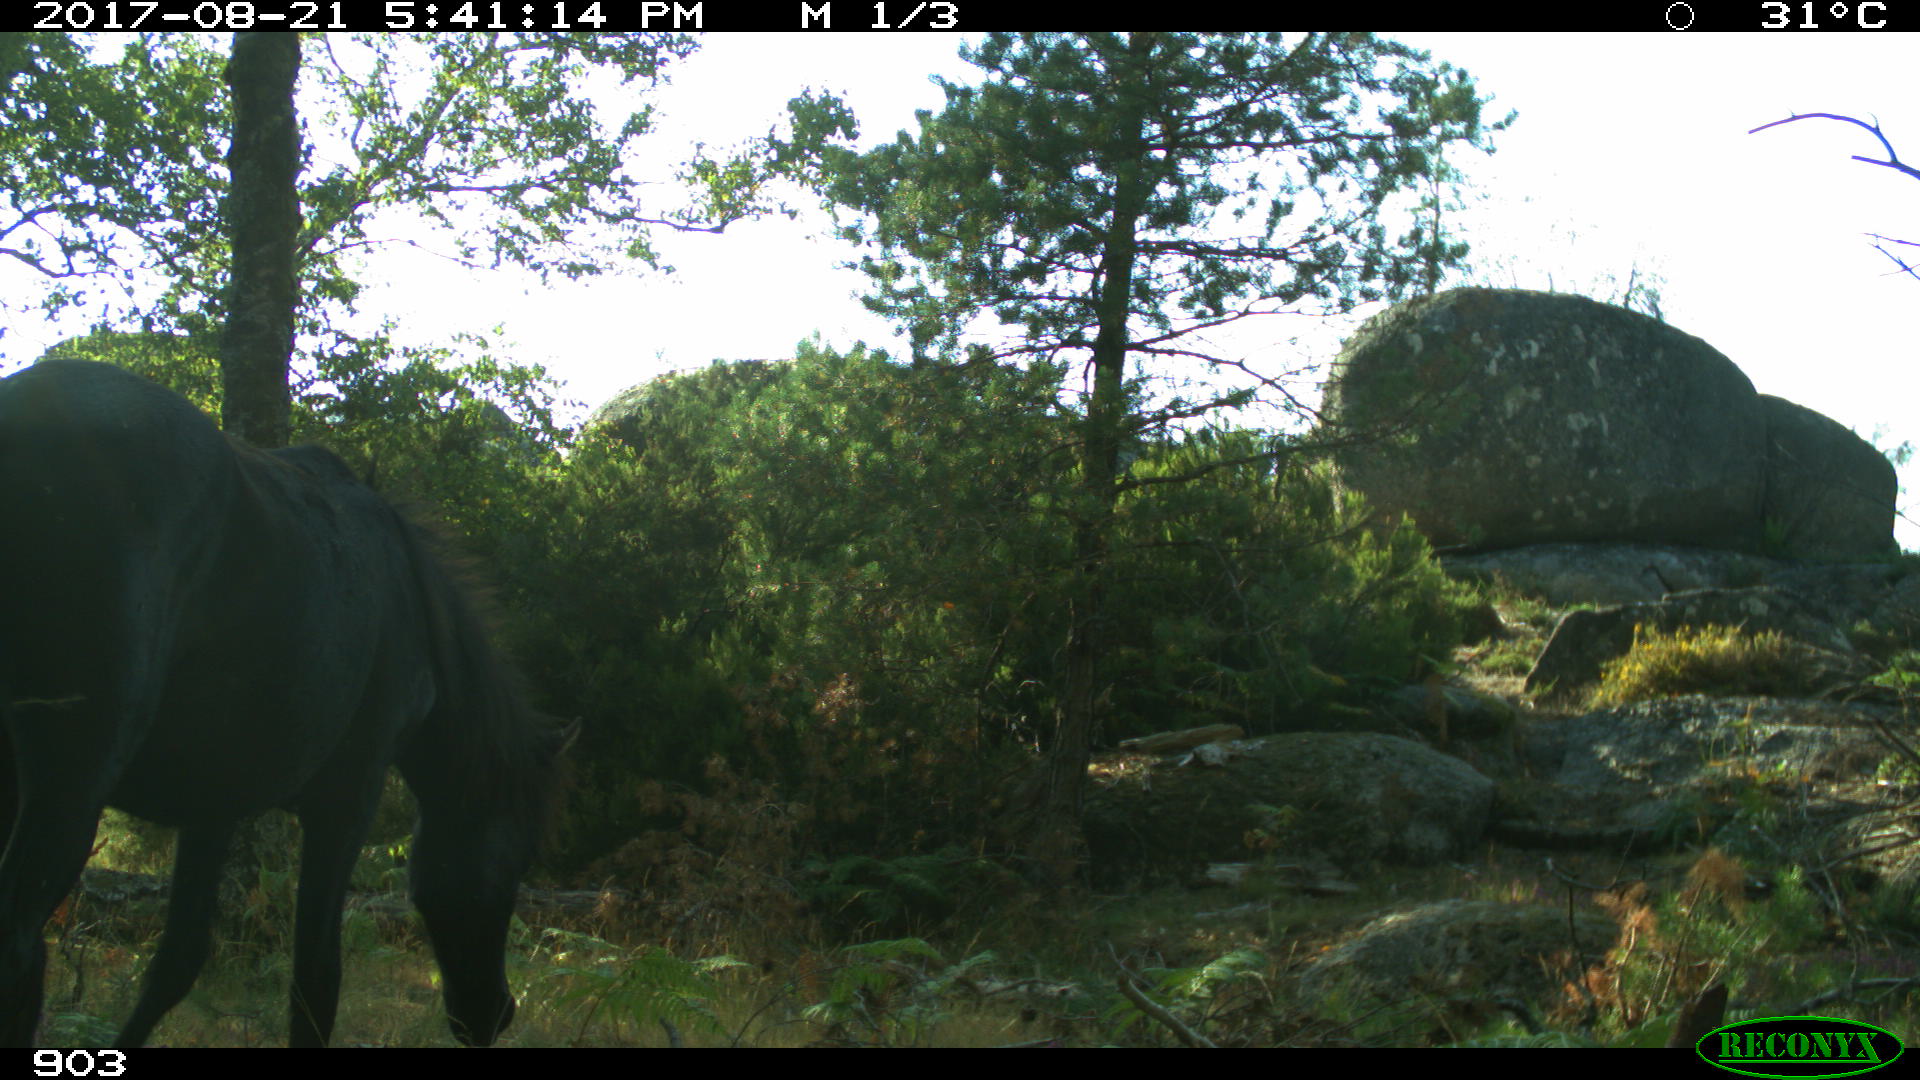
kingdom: Animalia
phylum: Chordata
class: Mammalia
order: Perissodactyla
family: Equidae
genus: Equus
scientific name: Equus caballus
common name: Horse
